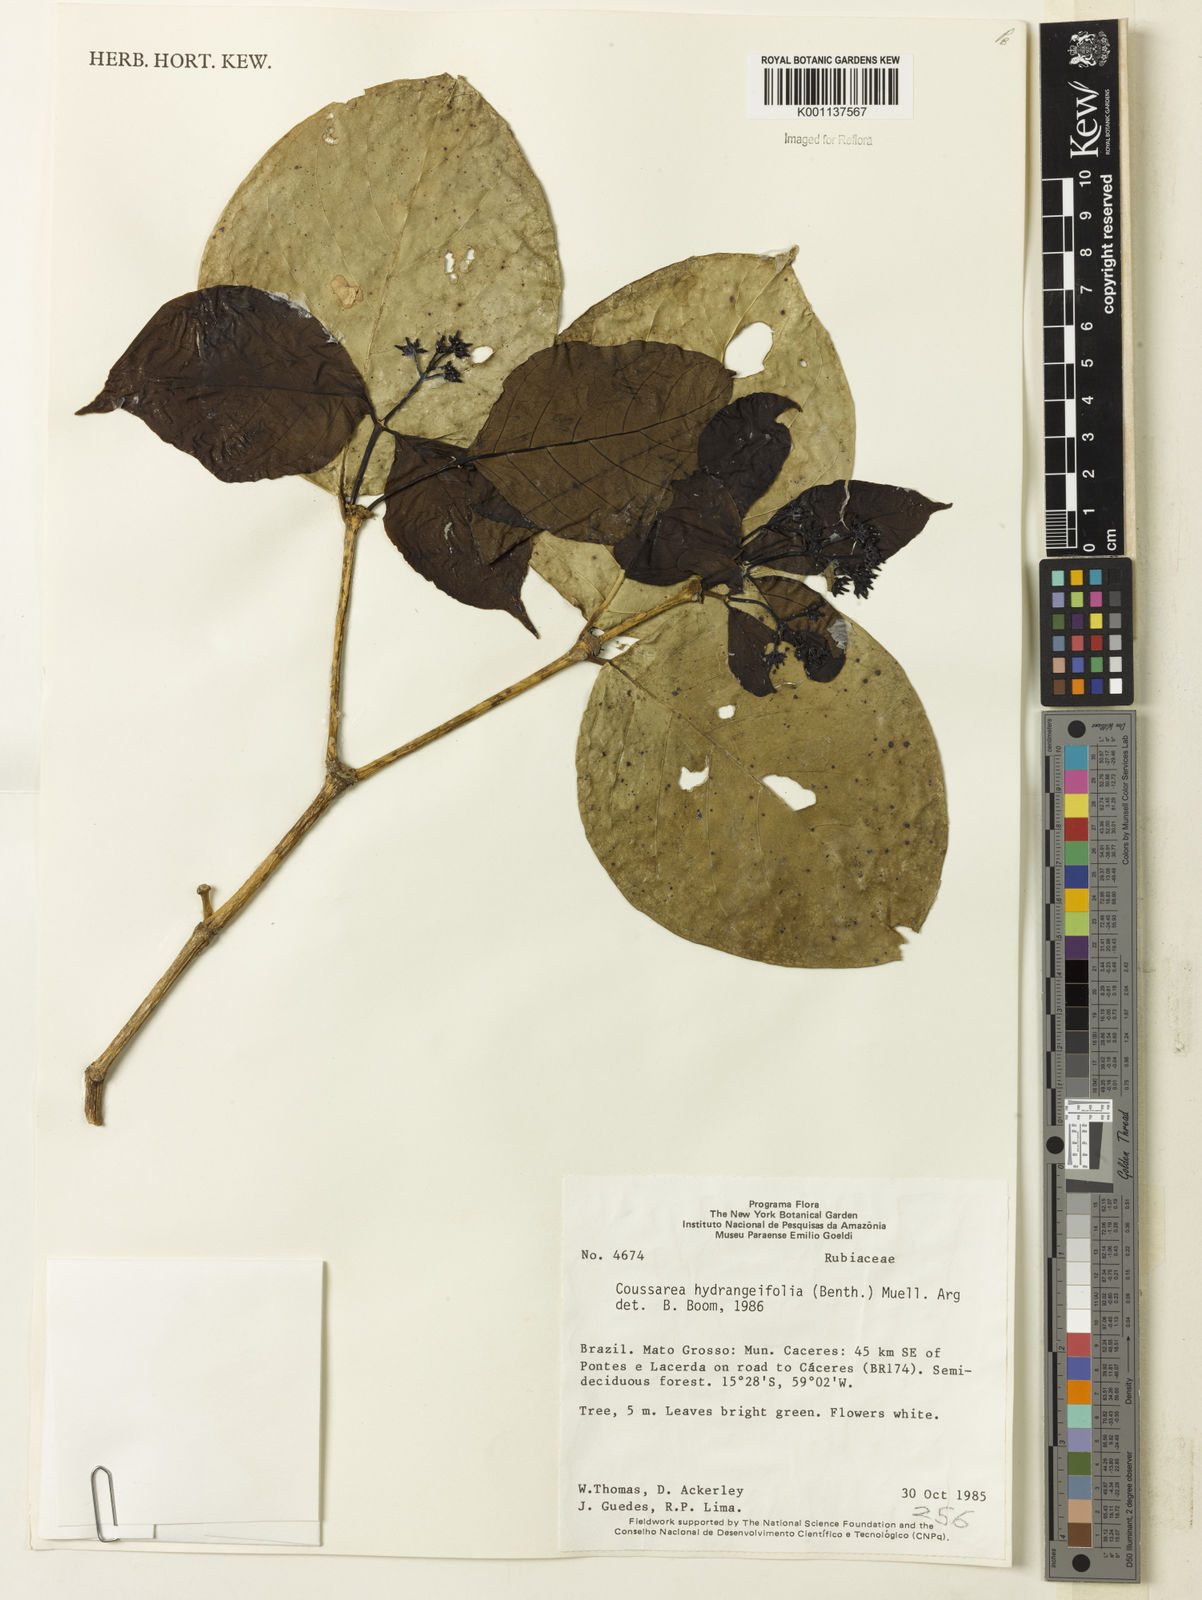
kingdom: Plantae
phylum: Tracheophyta
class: Magnoliopsida
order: Gentianales
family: Rubiaceae
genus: Coussarea
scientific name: Coussarea
